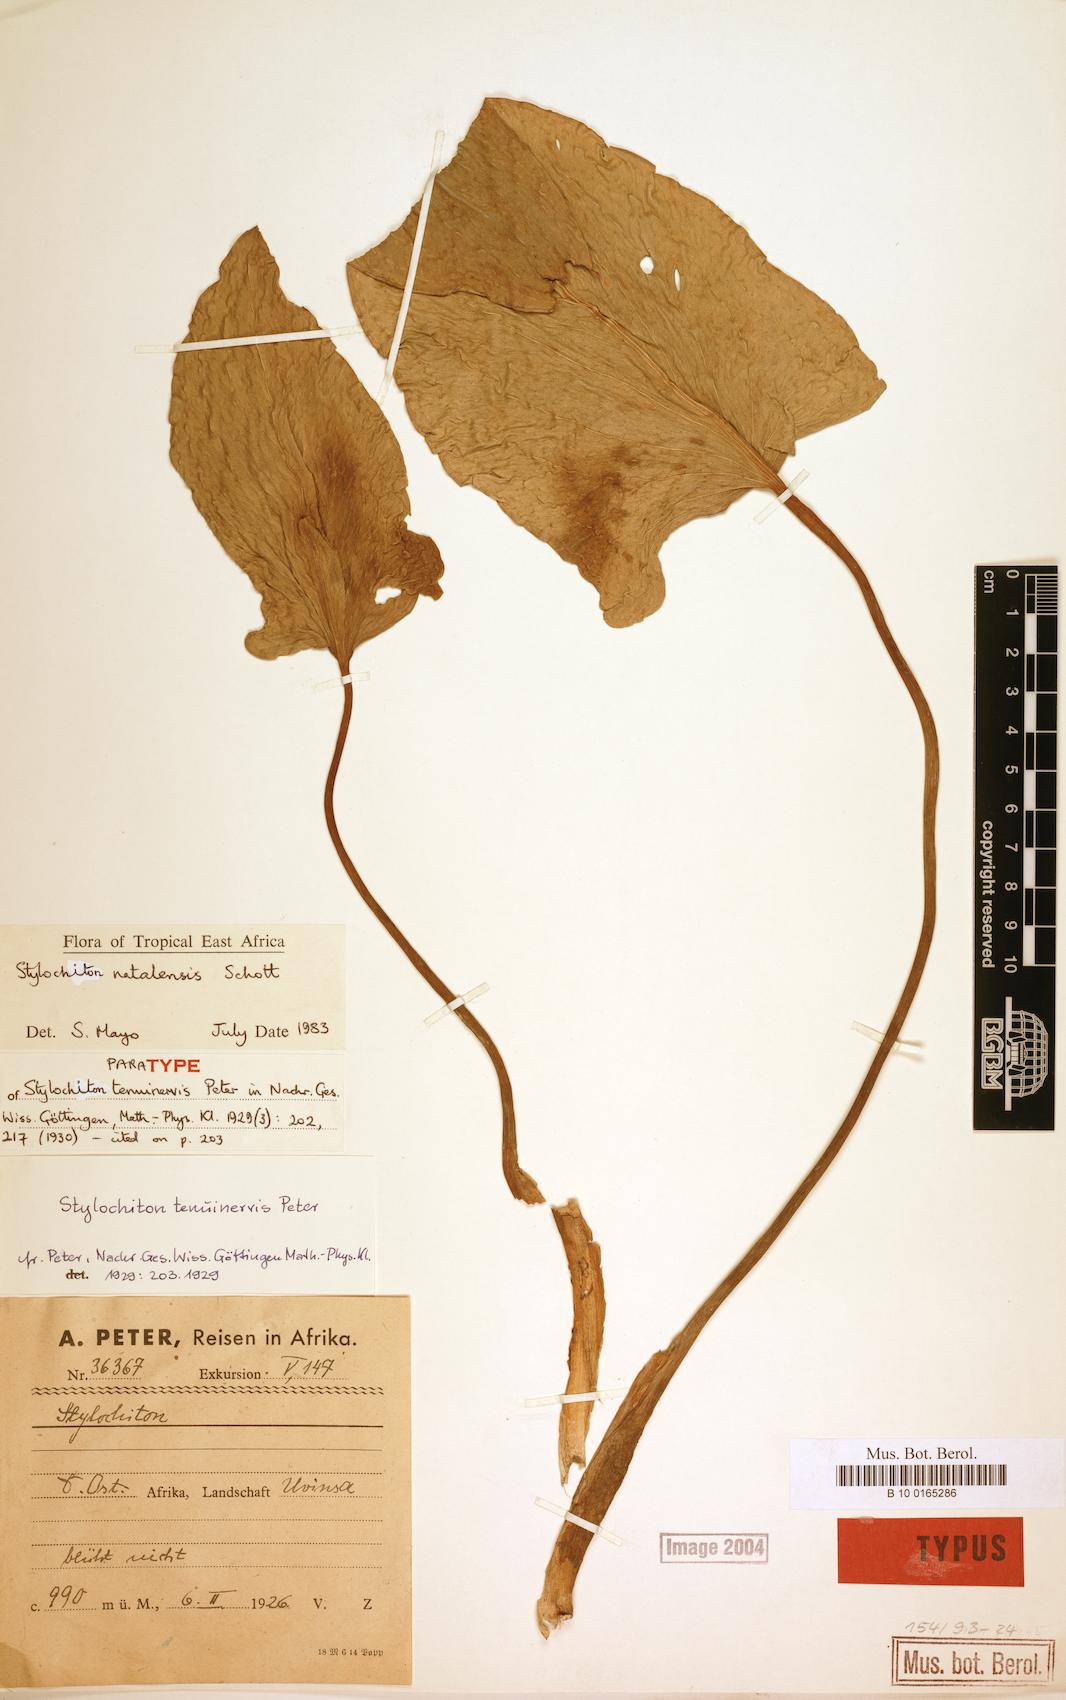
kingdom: Plantae
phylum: Tracheophyta
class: Liliopsida
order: Alismatales
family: Araceae
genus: Stylochiton
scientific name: Stylochiton natalensis
